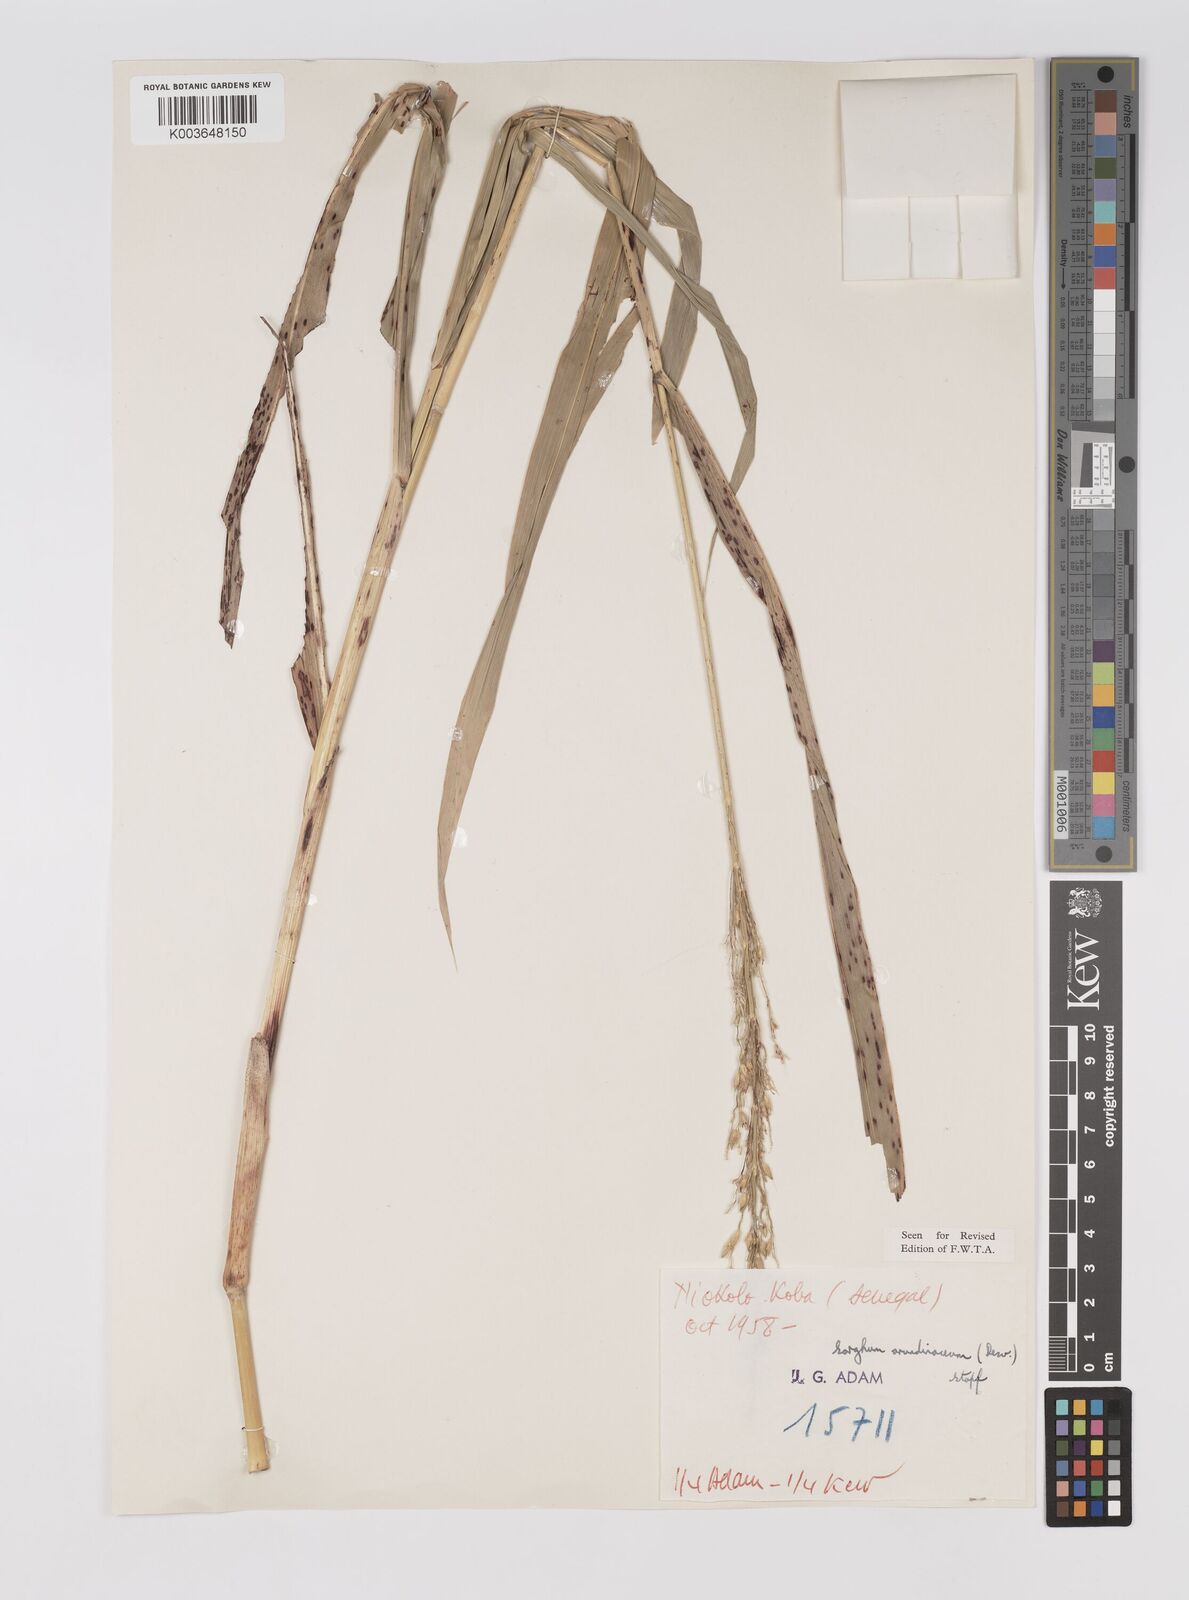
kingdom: Plantae
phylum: Tracheophyta
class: Liliopsida
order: Poales
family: Poaceae
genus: Sorghum
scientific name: Sorghum arundinaceum
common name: Sorghum
